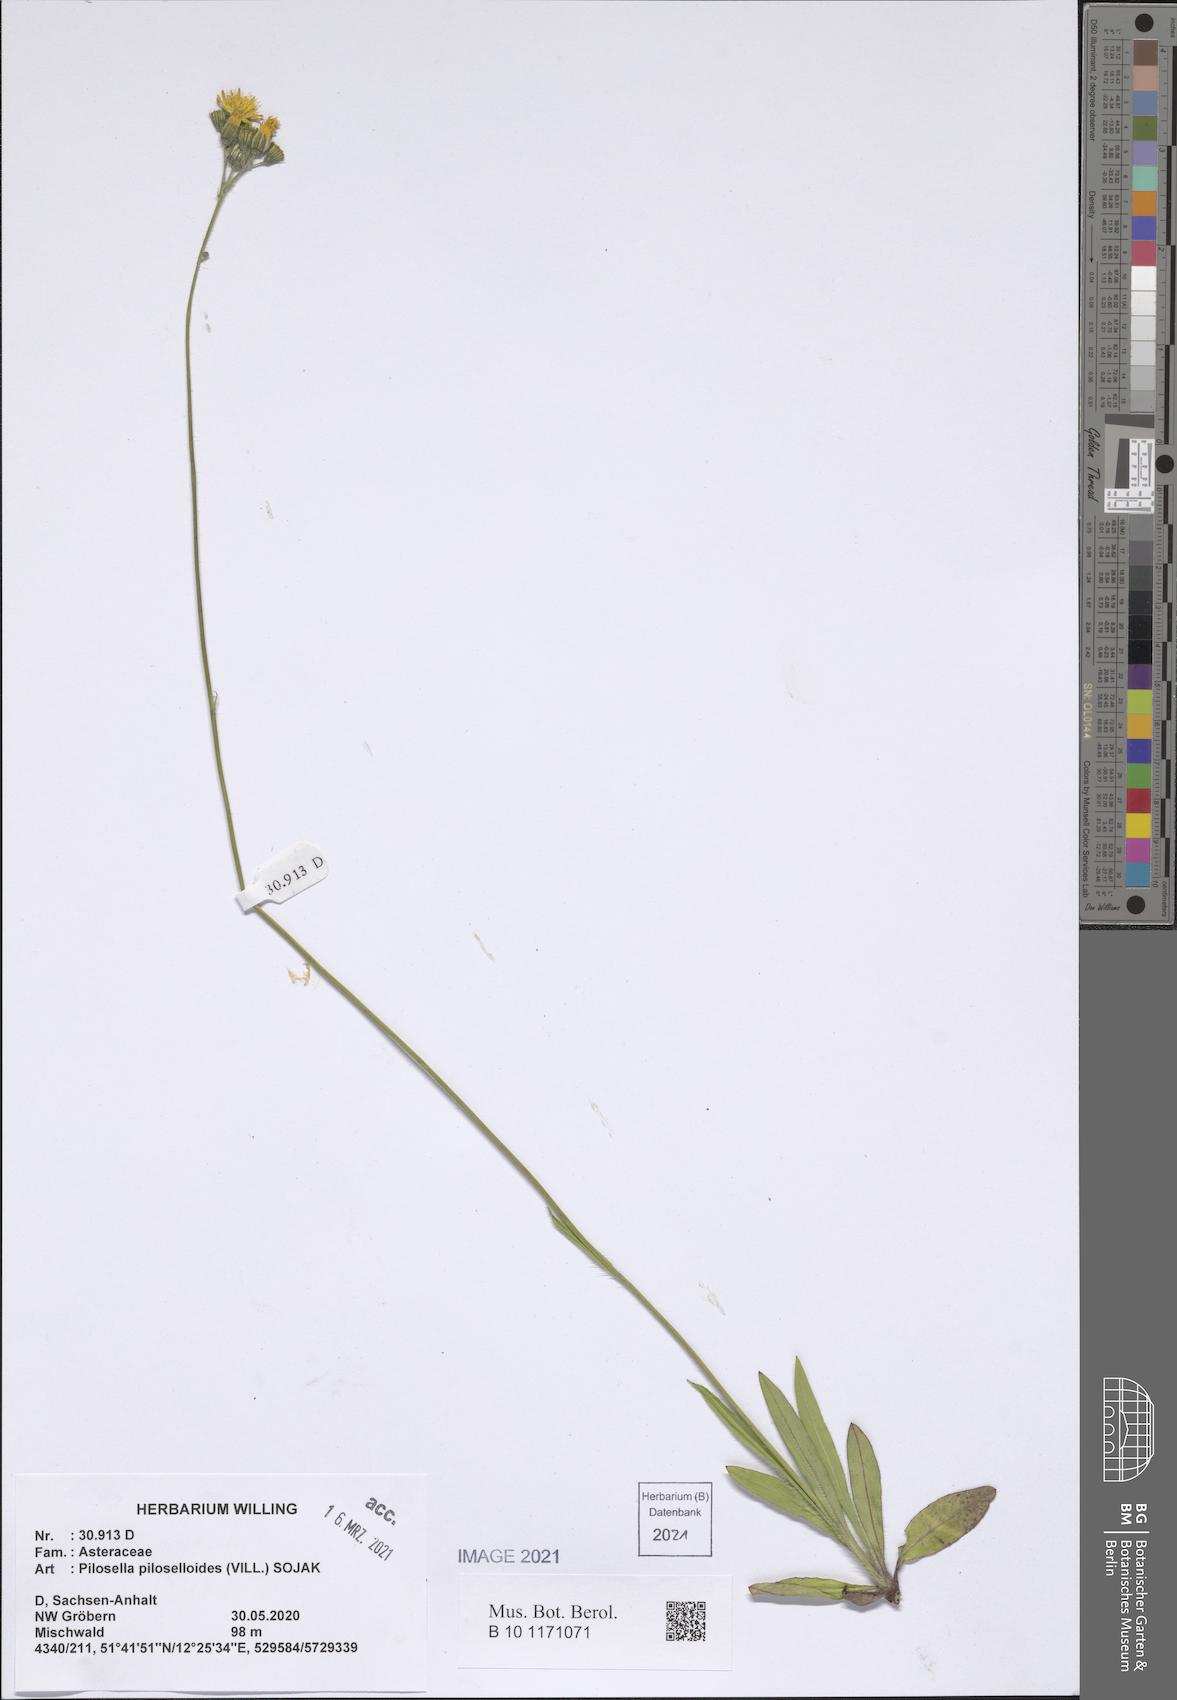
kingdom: Plantae
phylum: Tracheophyta
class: Magnoliopsida
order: Asterales
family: Asteraceae
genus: Pilosella
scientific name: Pilosella piloselloides
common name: Glaucous king-devil
